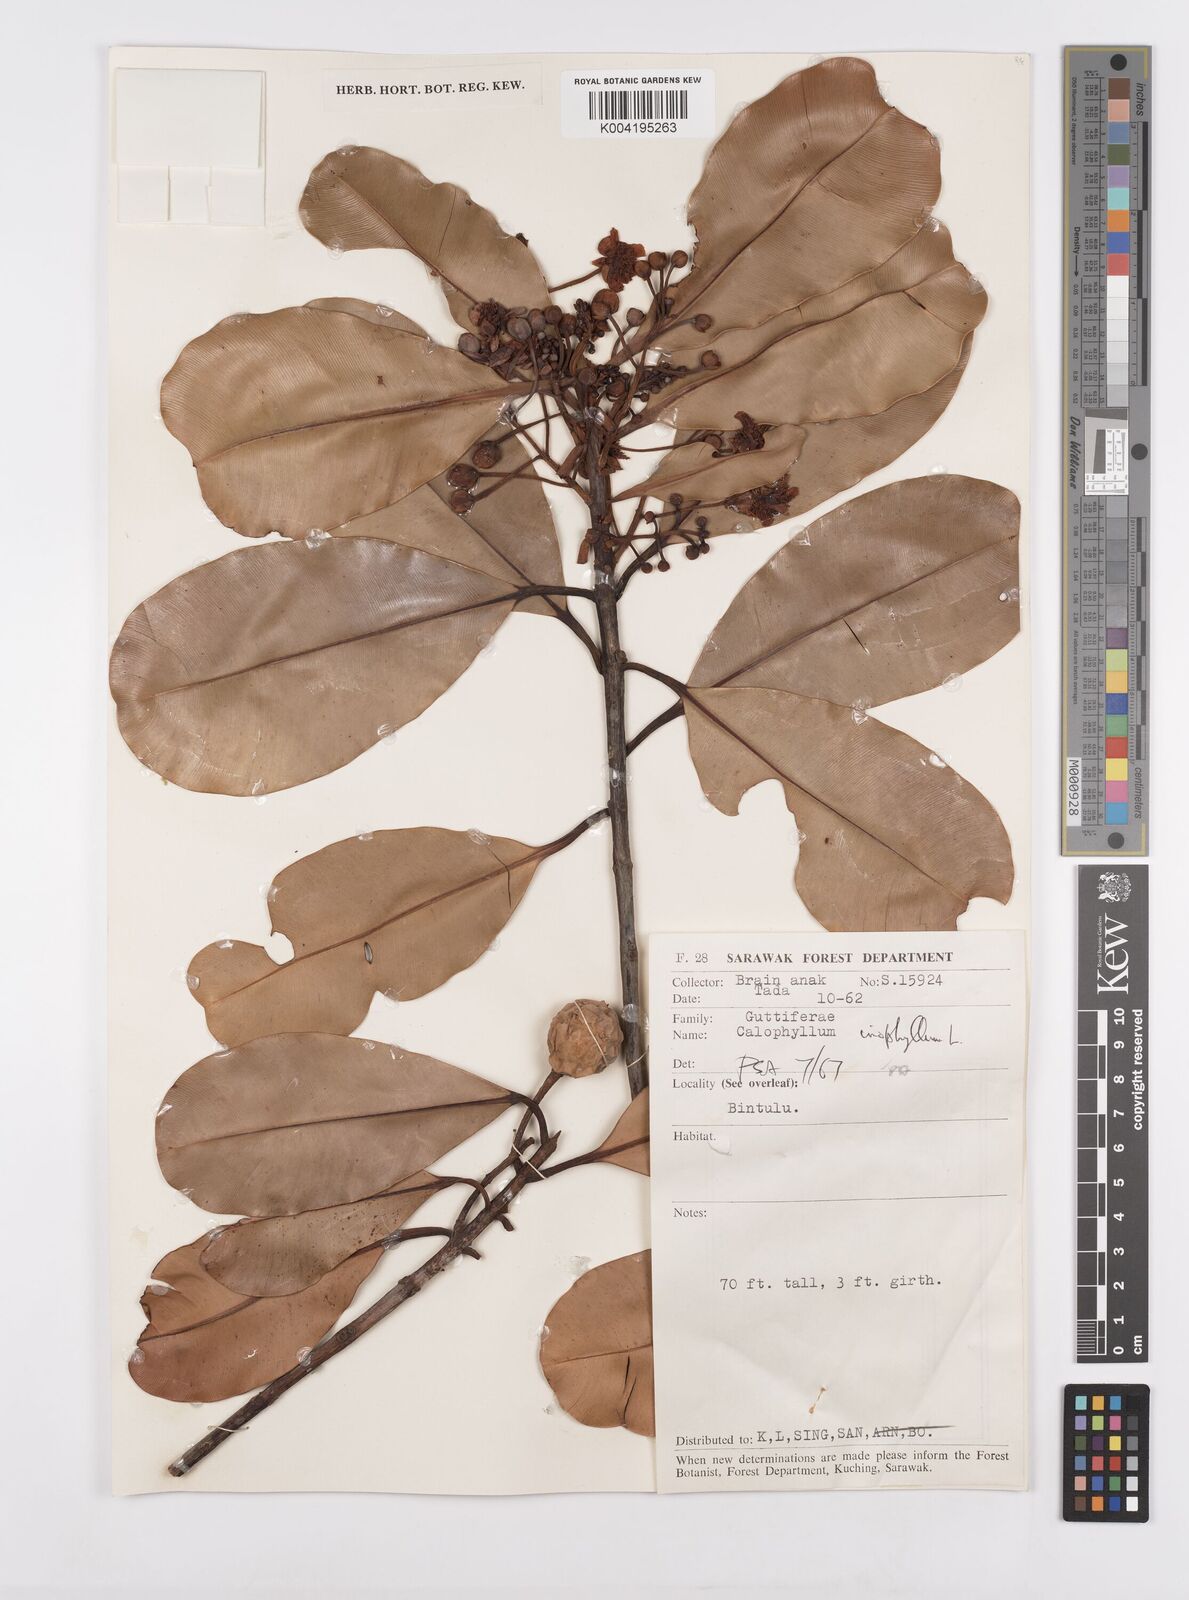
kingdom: Plantae
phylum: Tracheophyta
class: Magnoliopsida
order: Malpighiales
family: Calophyllaceae
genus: Calophyllum
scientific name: Calophyllum inophyllum
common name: Alexandrian laurel
